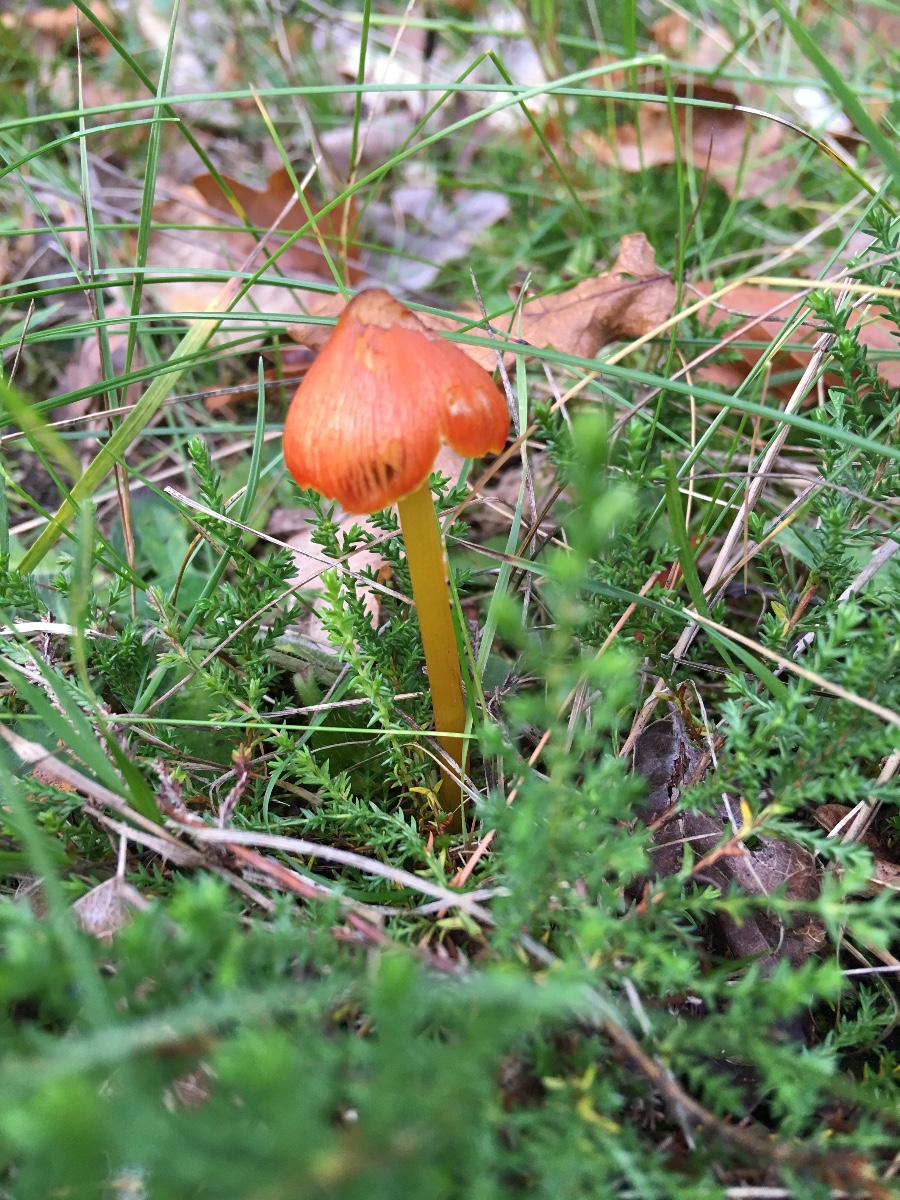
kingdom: Fungi
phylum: Basidiomycota
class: Agaricomycetes
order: Agaricales
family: Hygrophoraceae
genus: Hygrocybe
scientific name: Hygrocybe conica
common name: kegle-vokshat
